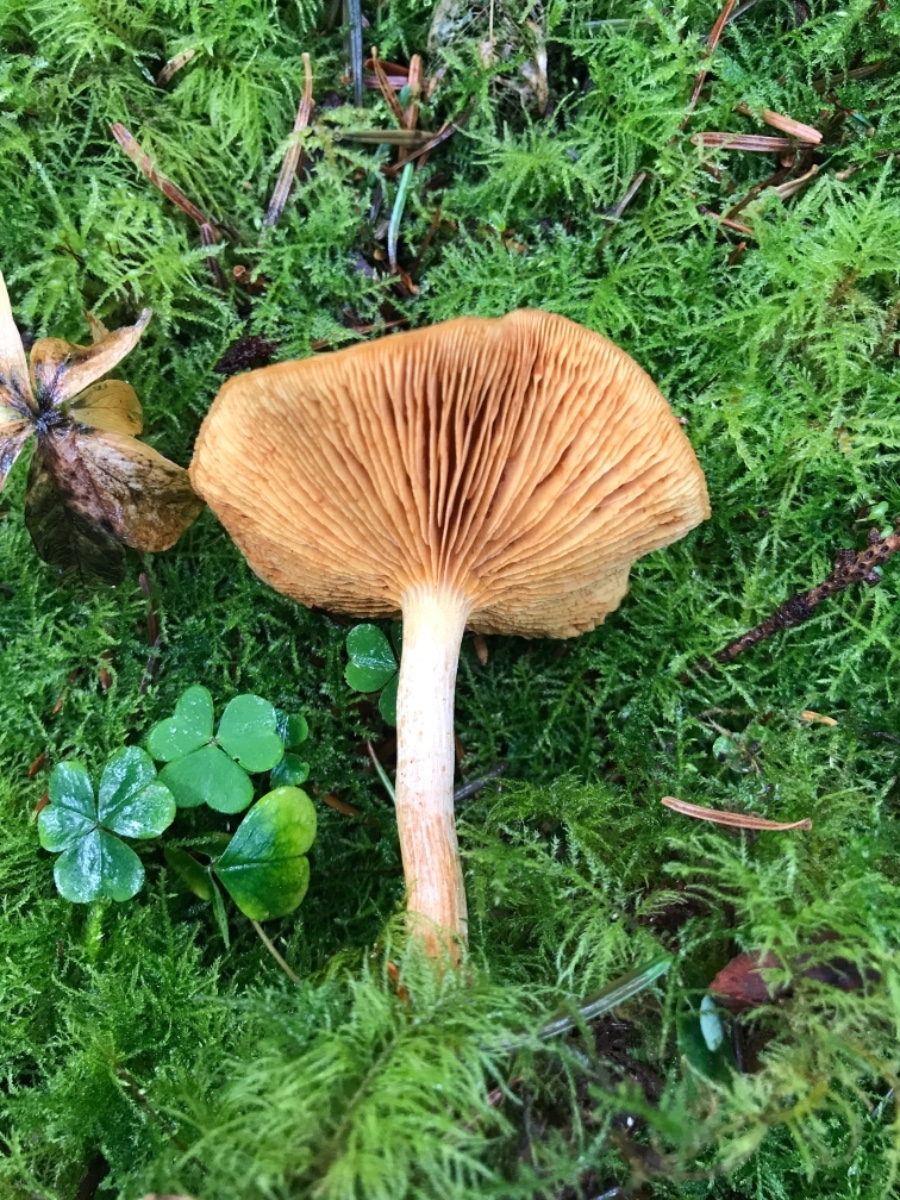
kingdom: Fungi
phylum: Basidiomycota
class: Agaricomycetes
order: Agaricales
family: Hymenogastraceae
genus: Gymnopilus
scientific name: Gymnopilus penetrans
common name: plettet flammehat
